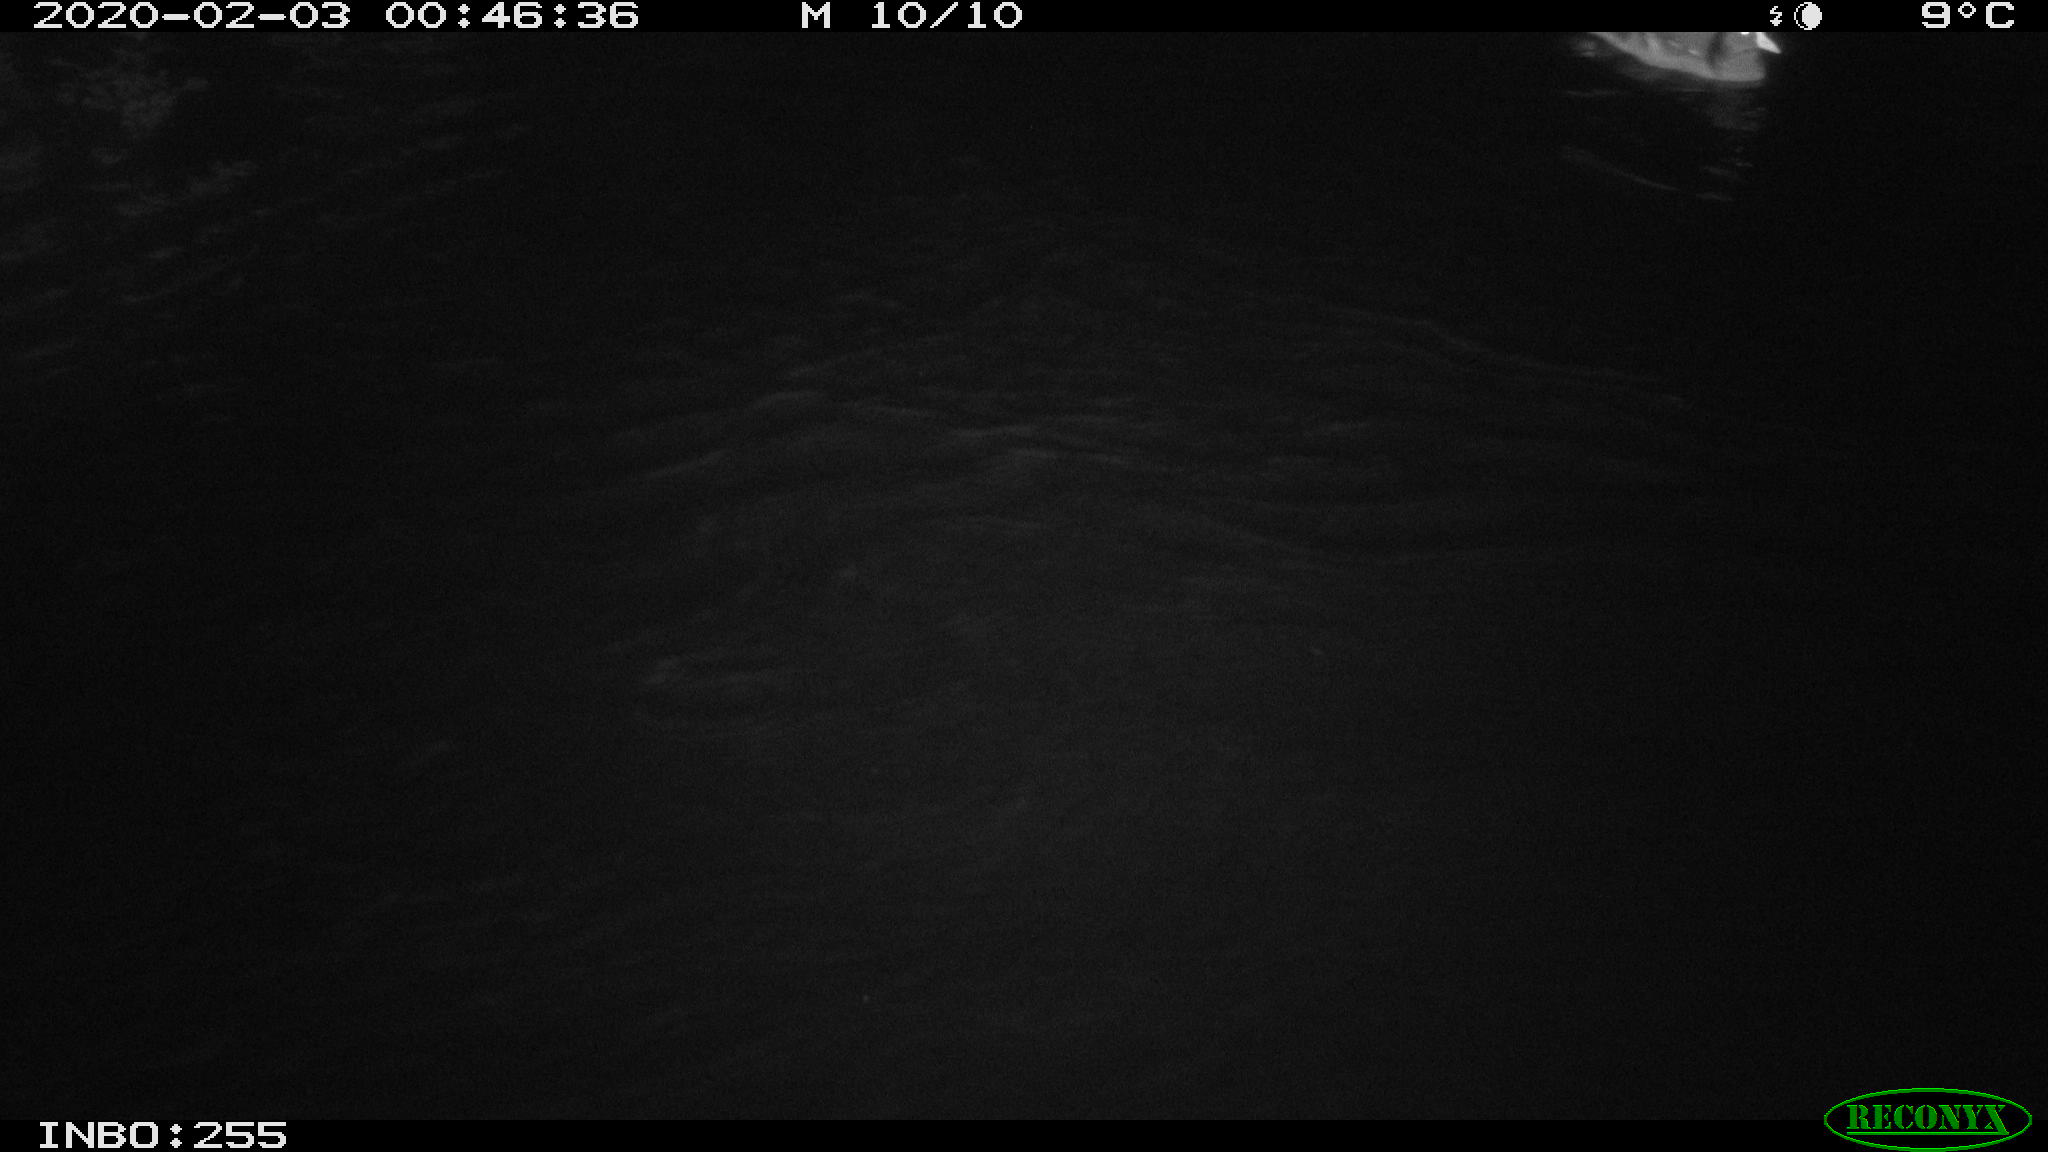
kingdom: Animalia
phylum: Chordata
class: Aves
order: Gruiformes
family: Rallidae
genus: Gallinula
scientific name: Gallinula chloropus
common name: Common moorhen
